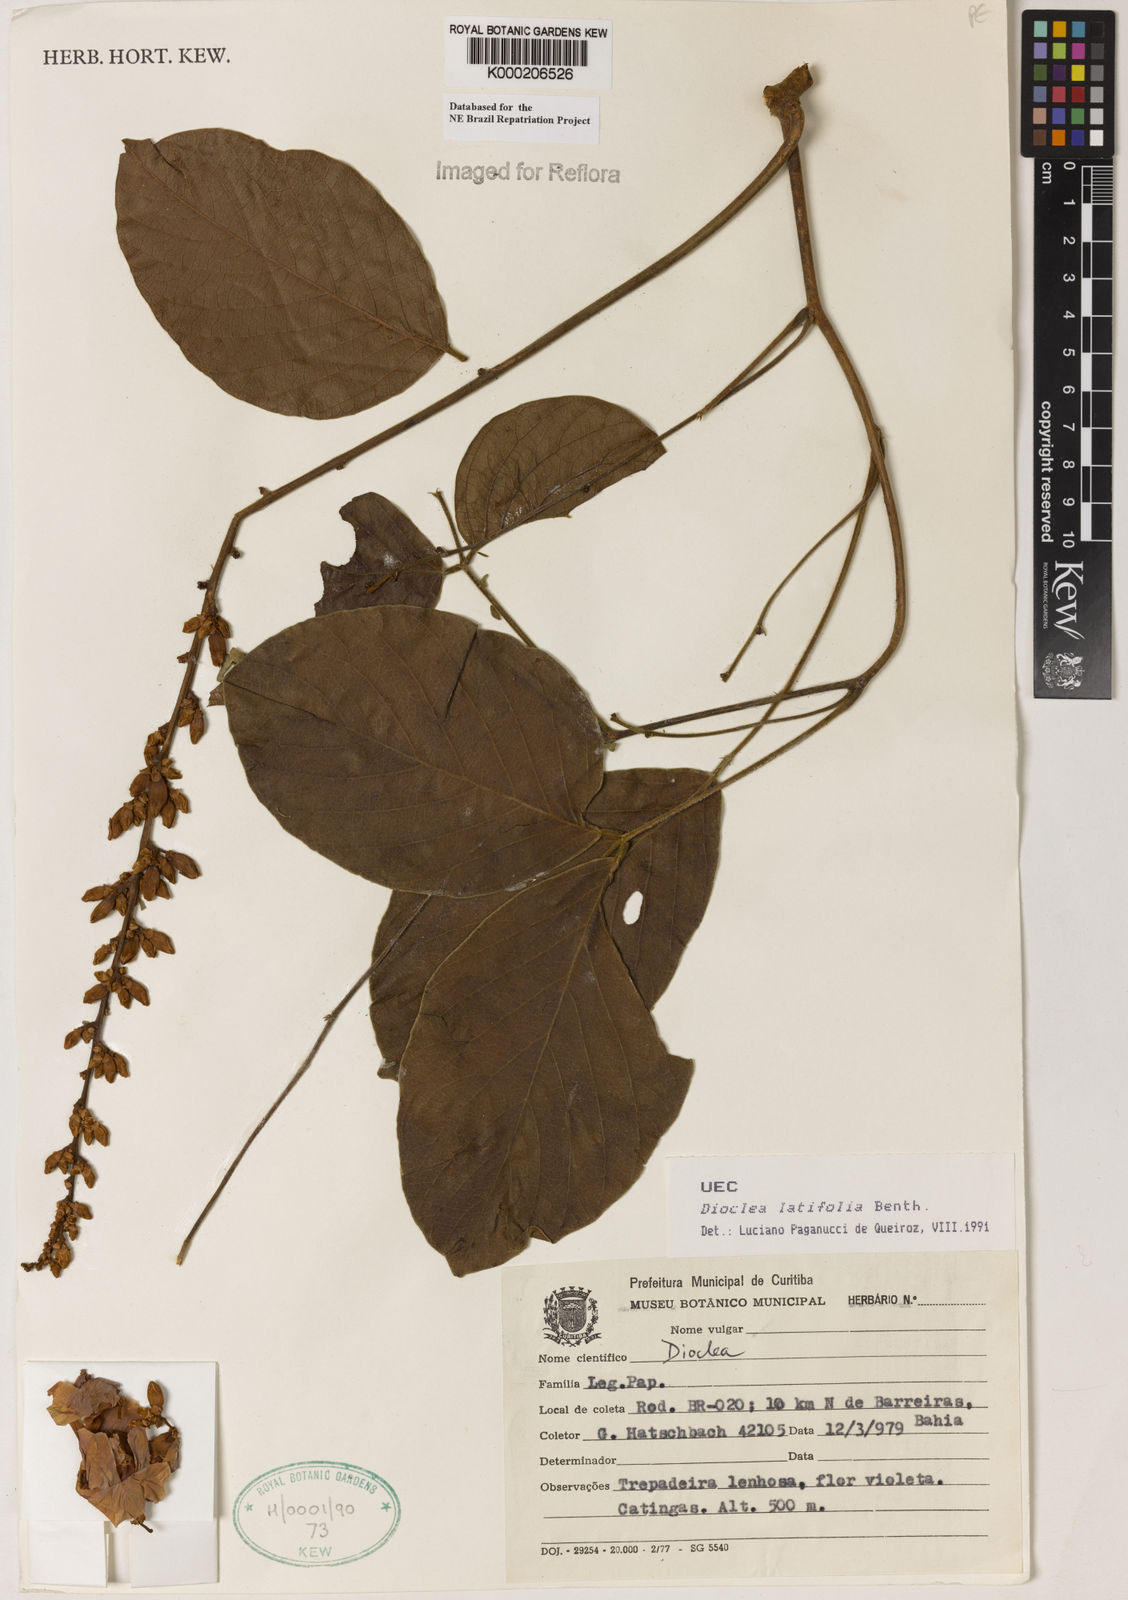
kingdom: Plantae
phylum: Tracheophyta
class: Magnoliopsida
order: Fabales
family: Fabaceae
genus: Macropsychanthus
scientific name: Macropsychanthus latifolius
